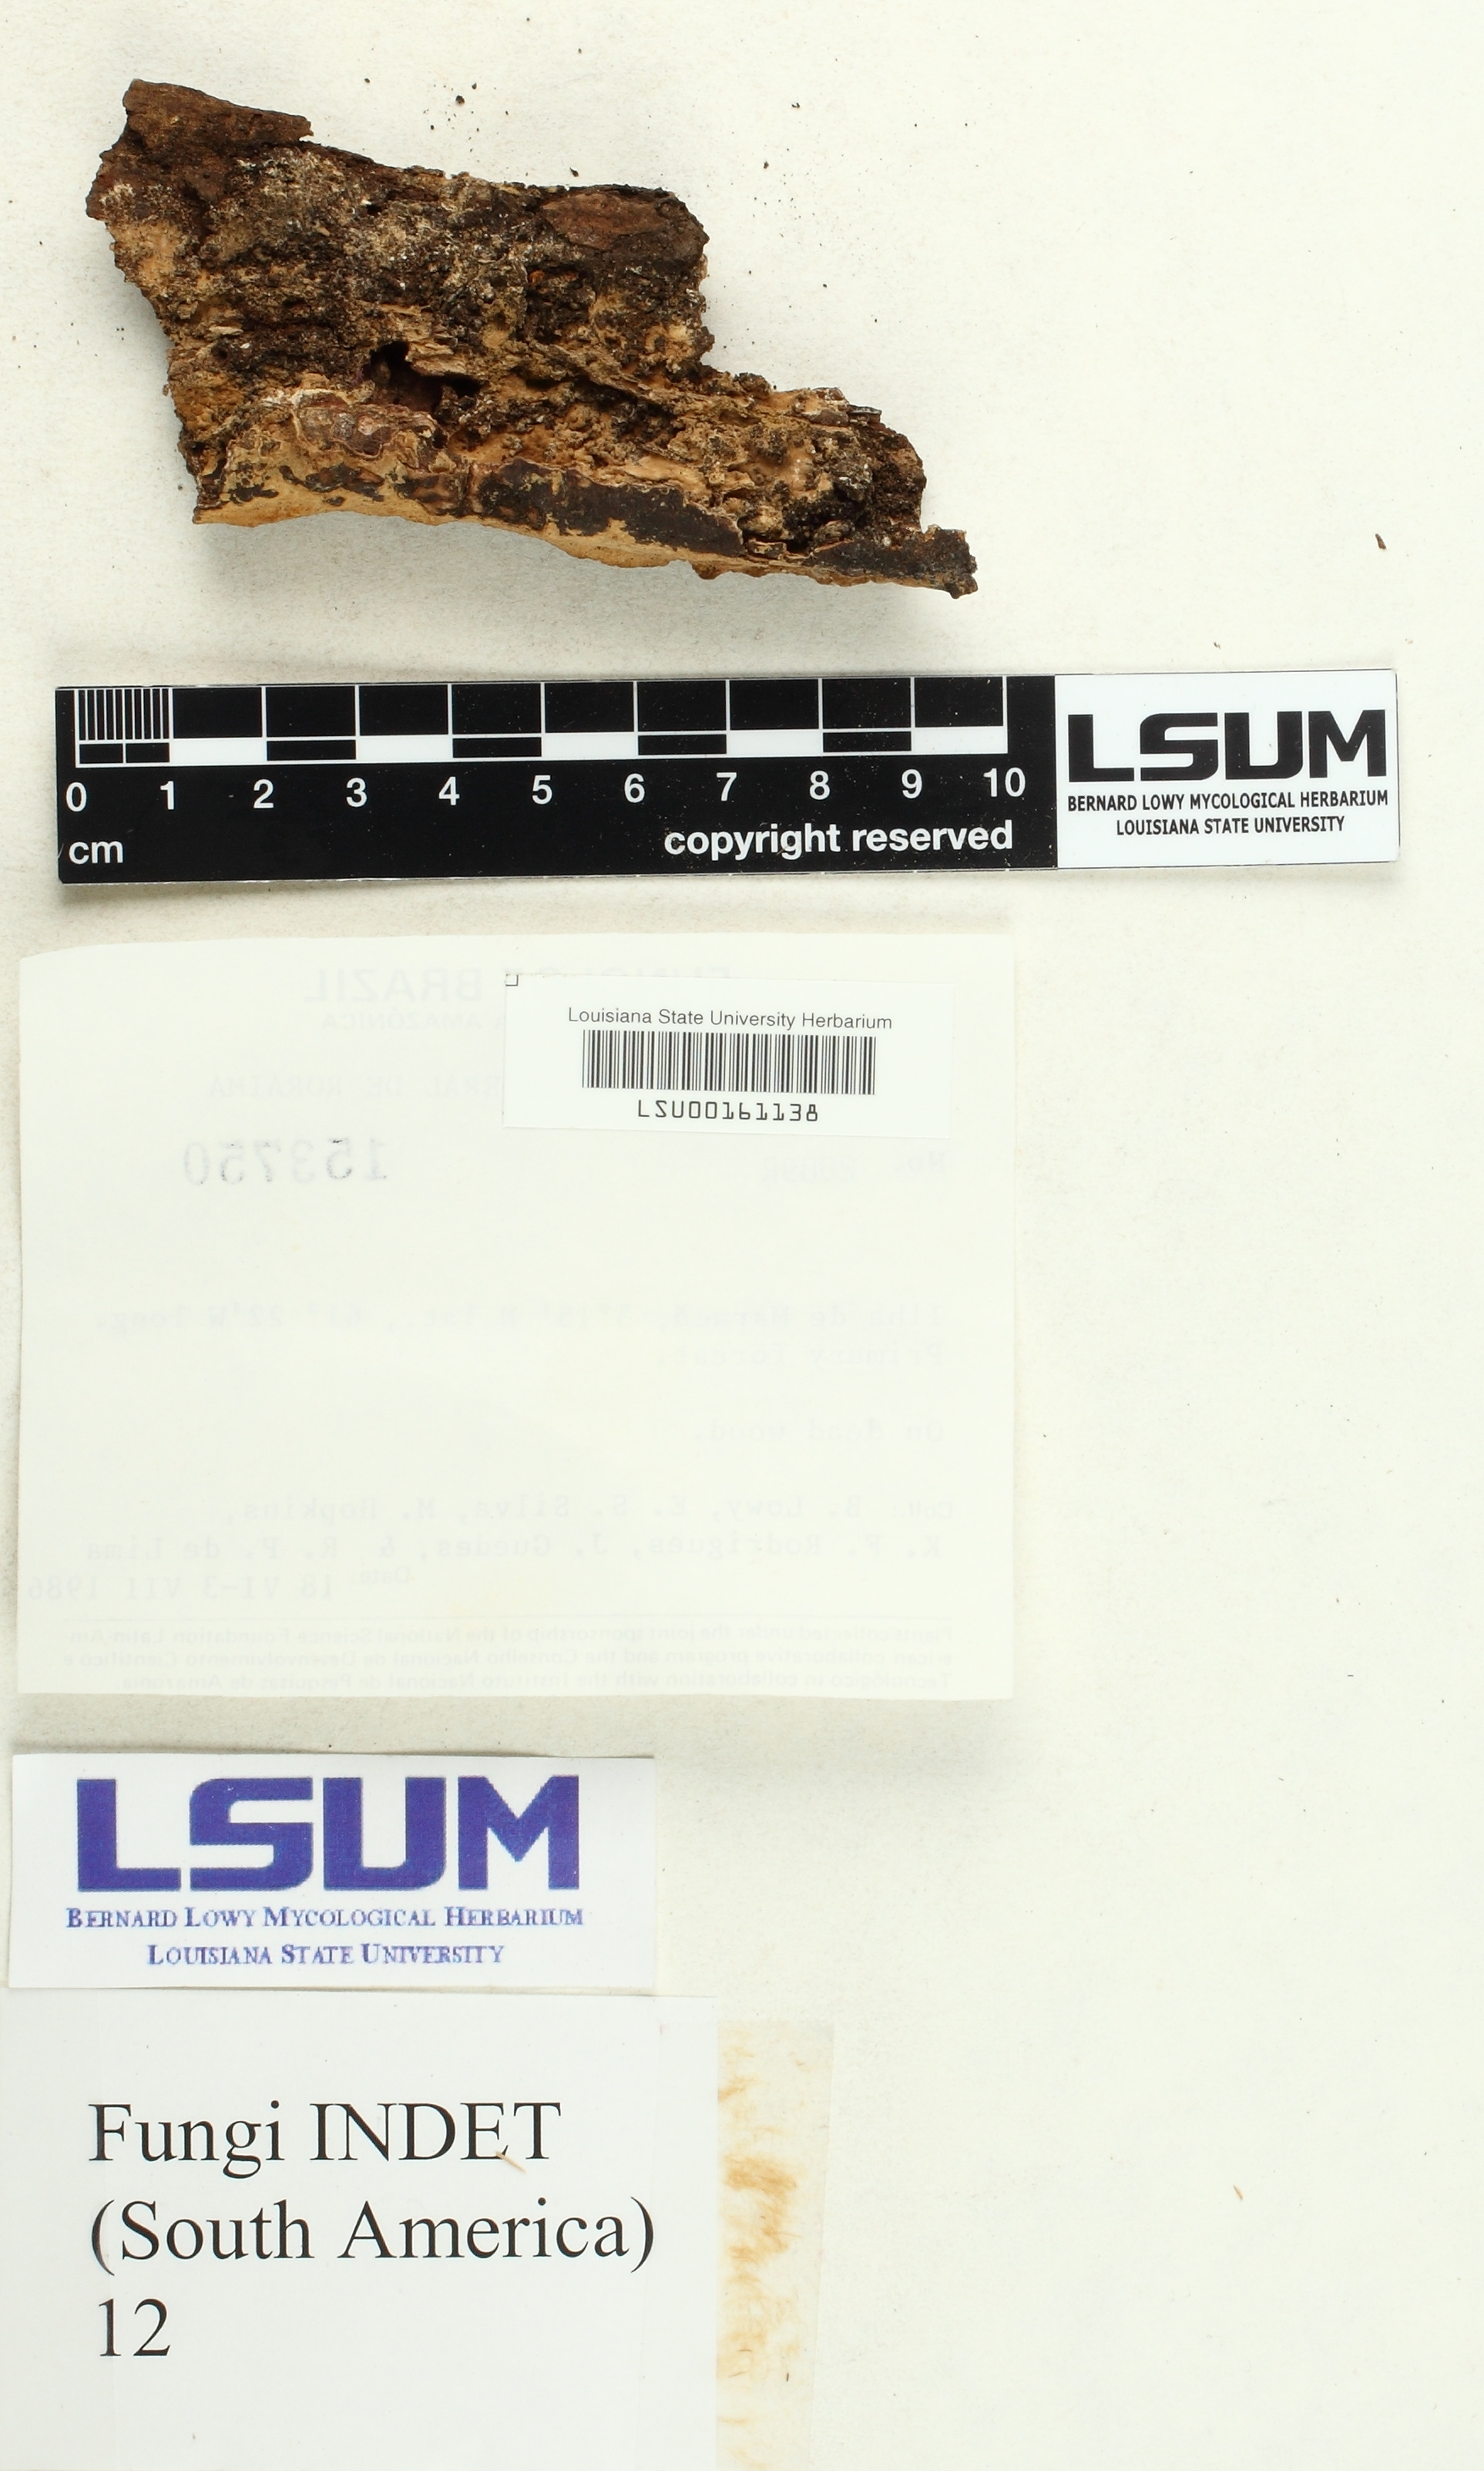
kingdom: Fungi
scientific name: Fungi
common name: Fungi
